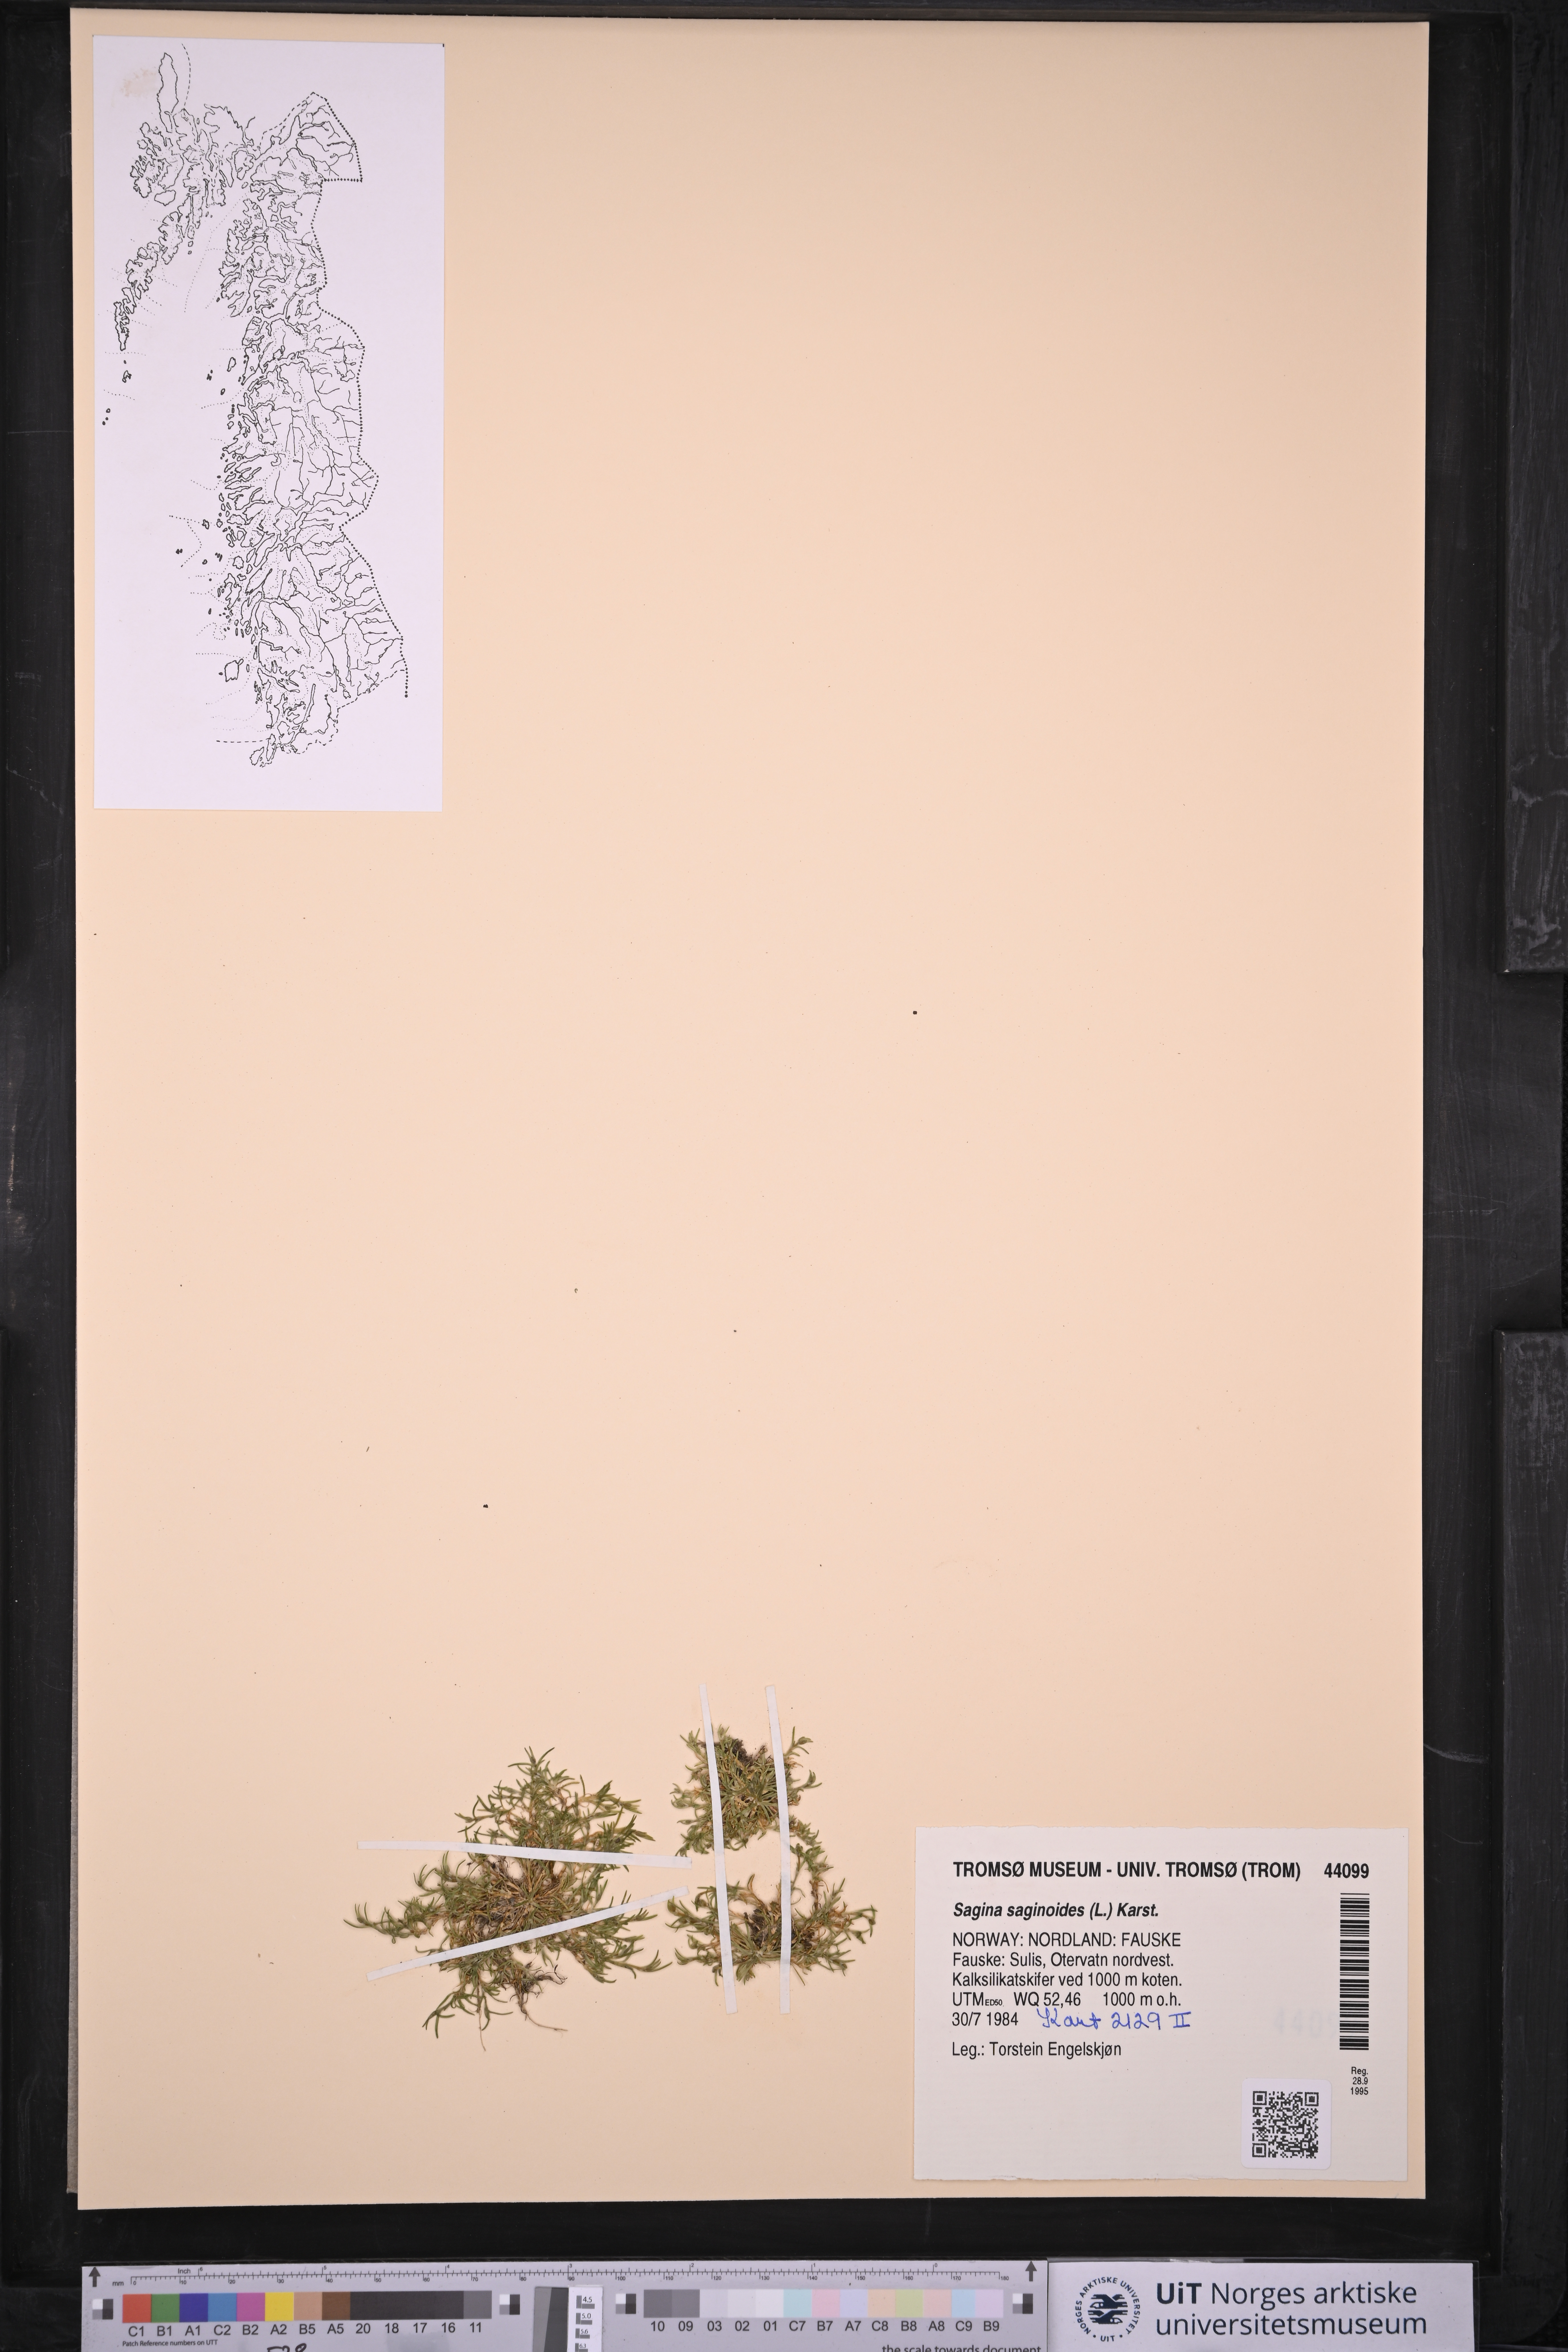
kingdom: Plantae
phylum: Tracheophyta
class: Magnoliopsida
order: Caryophyllales
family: Caryophyllaceae
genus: Sagina
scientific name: Sagina saginoides
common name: Alpine pearlwort
